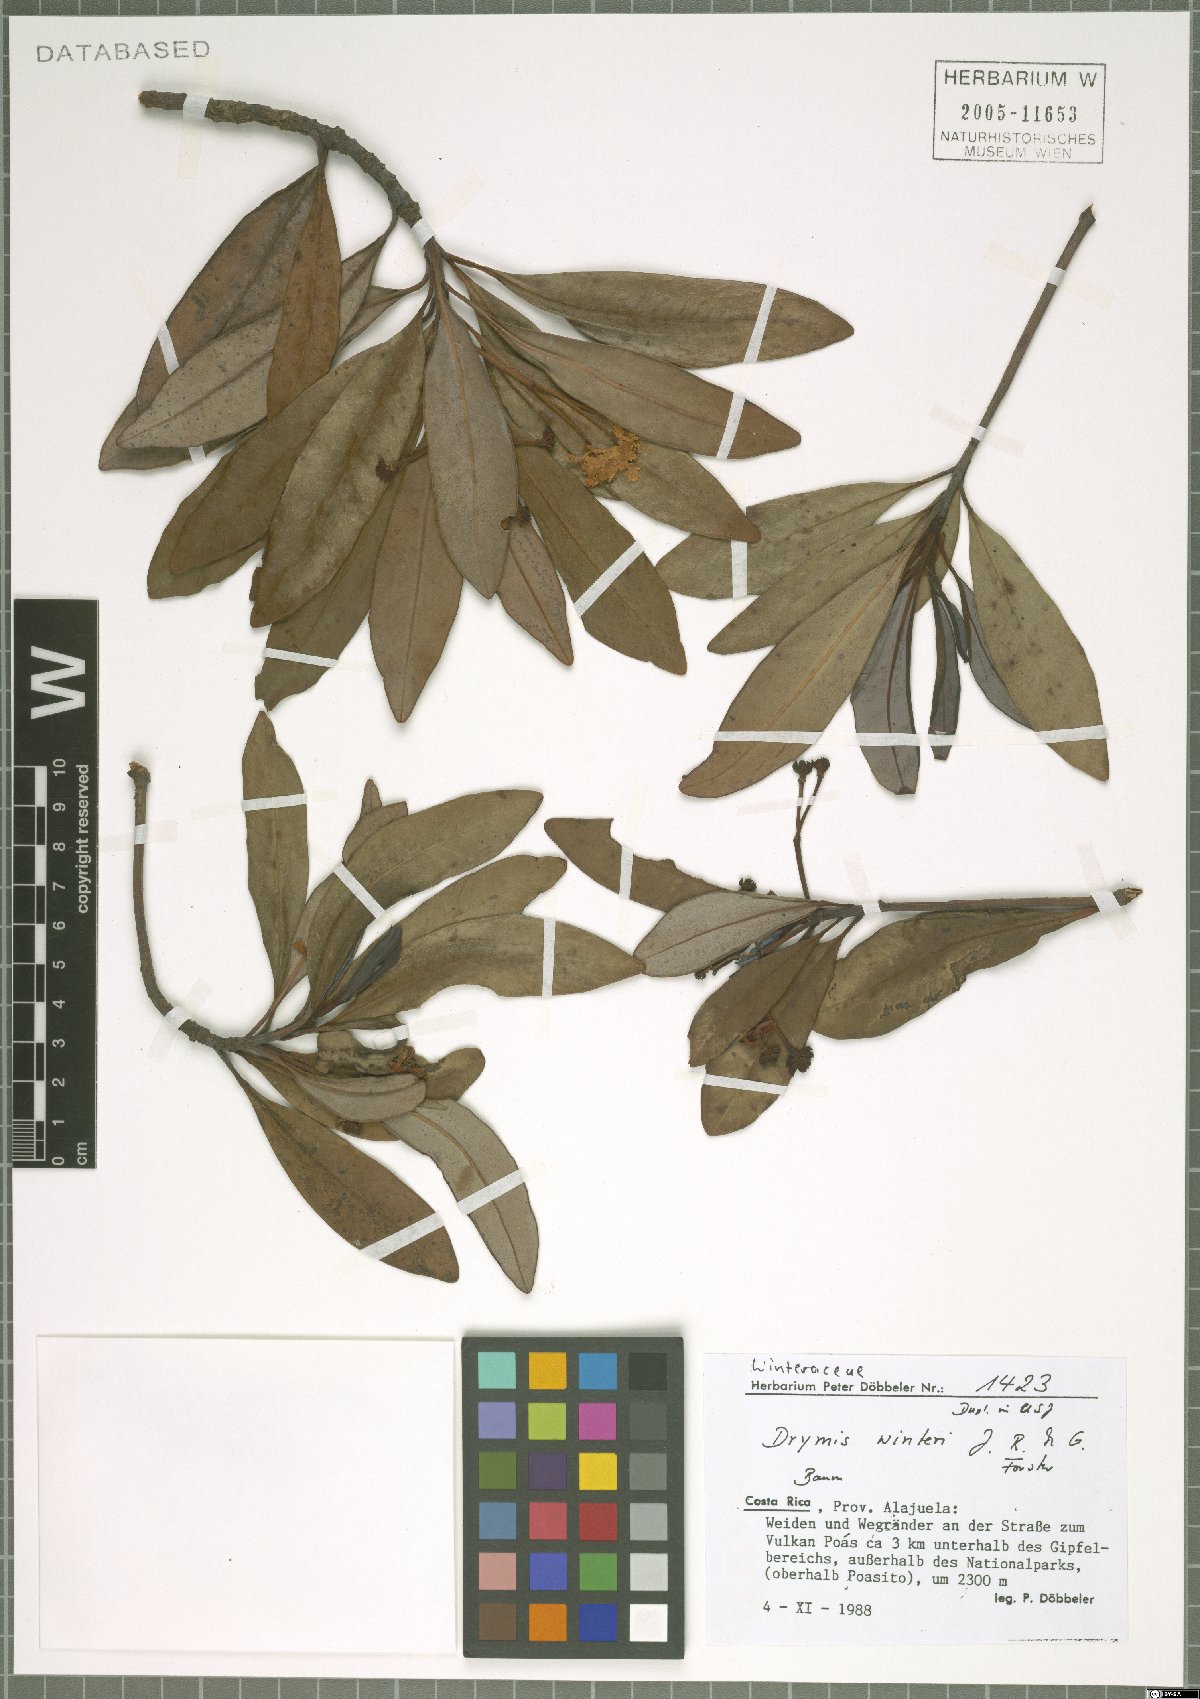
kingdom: Plantae
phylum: Tracheophyta
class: Magnoliopsida
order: Canellales
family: Winteraceae
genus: Drimys
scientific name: Drimys winteri
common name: Winter's-bark
